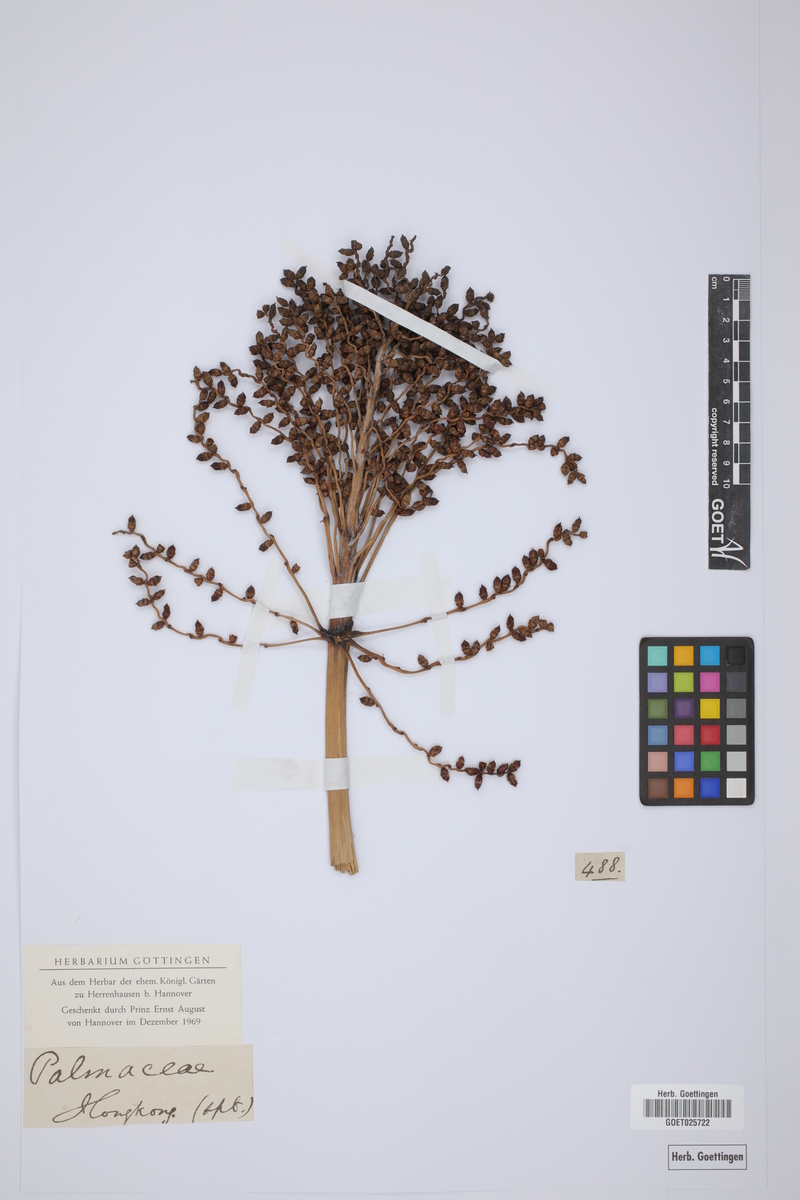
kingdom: Plantae
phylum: Tracheophyta
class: Liliopsida
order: Arecales
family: Arecaceae
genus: Phoenix
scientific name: Phoenix
